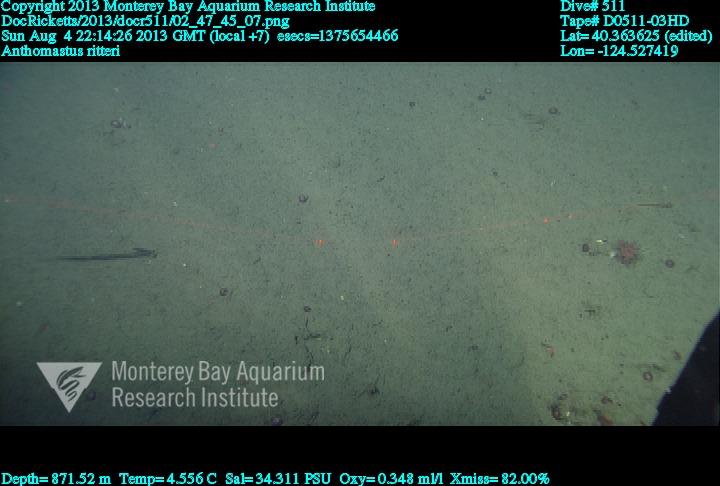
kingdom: Animalia
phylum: Cnidaria
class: Anthozoa
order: Scleralcyonacea
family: Coralliidae
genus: Heteropolypus
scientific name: Heteropolypus ritteri
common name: Ritter's soft coral
